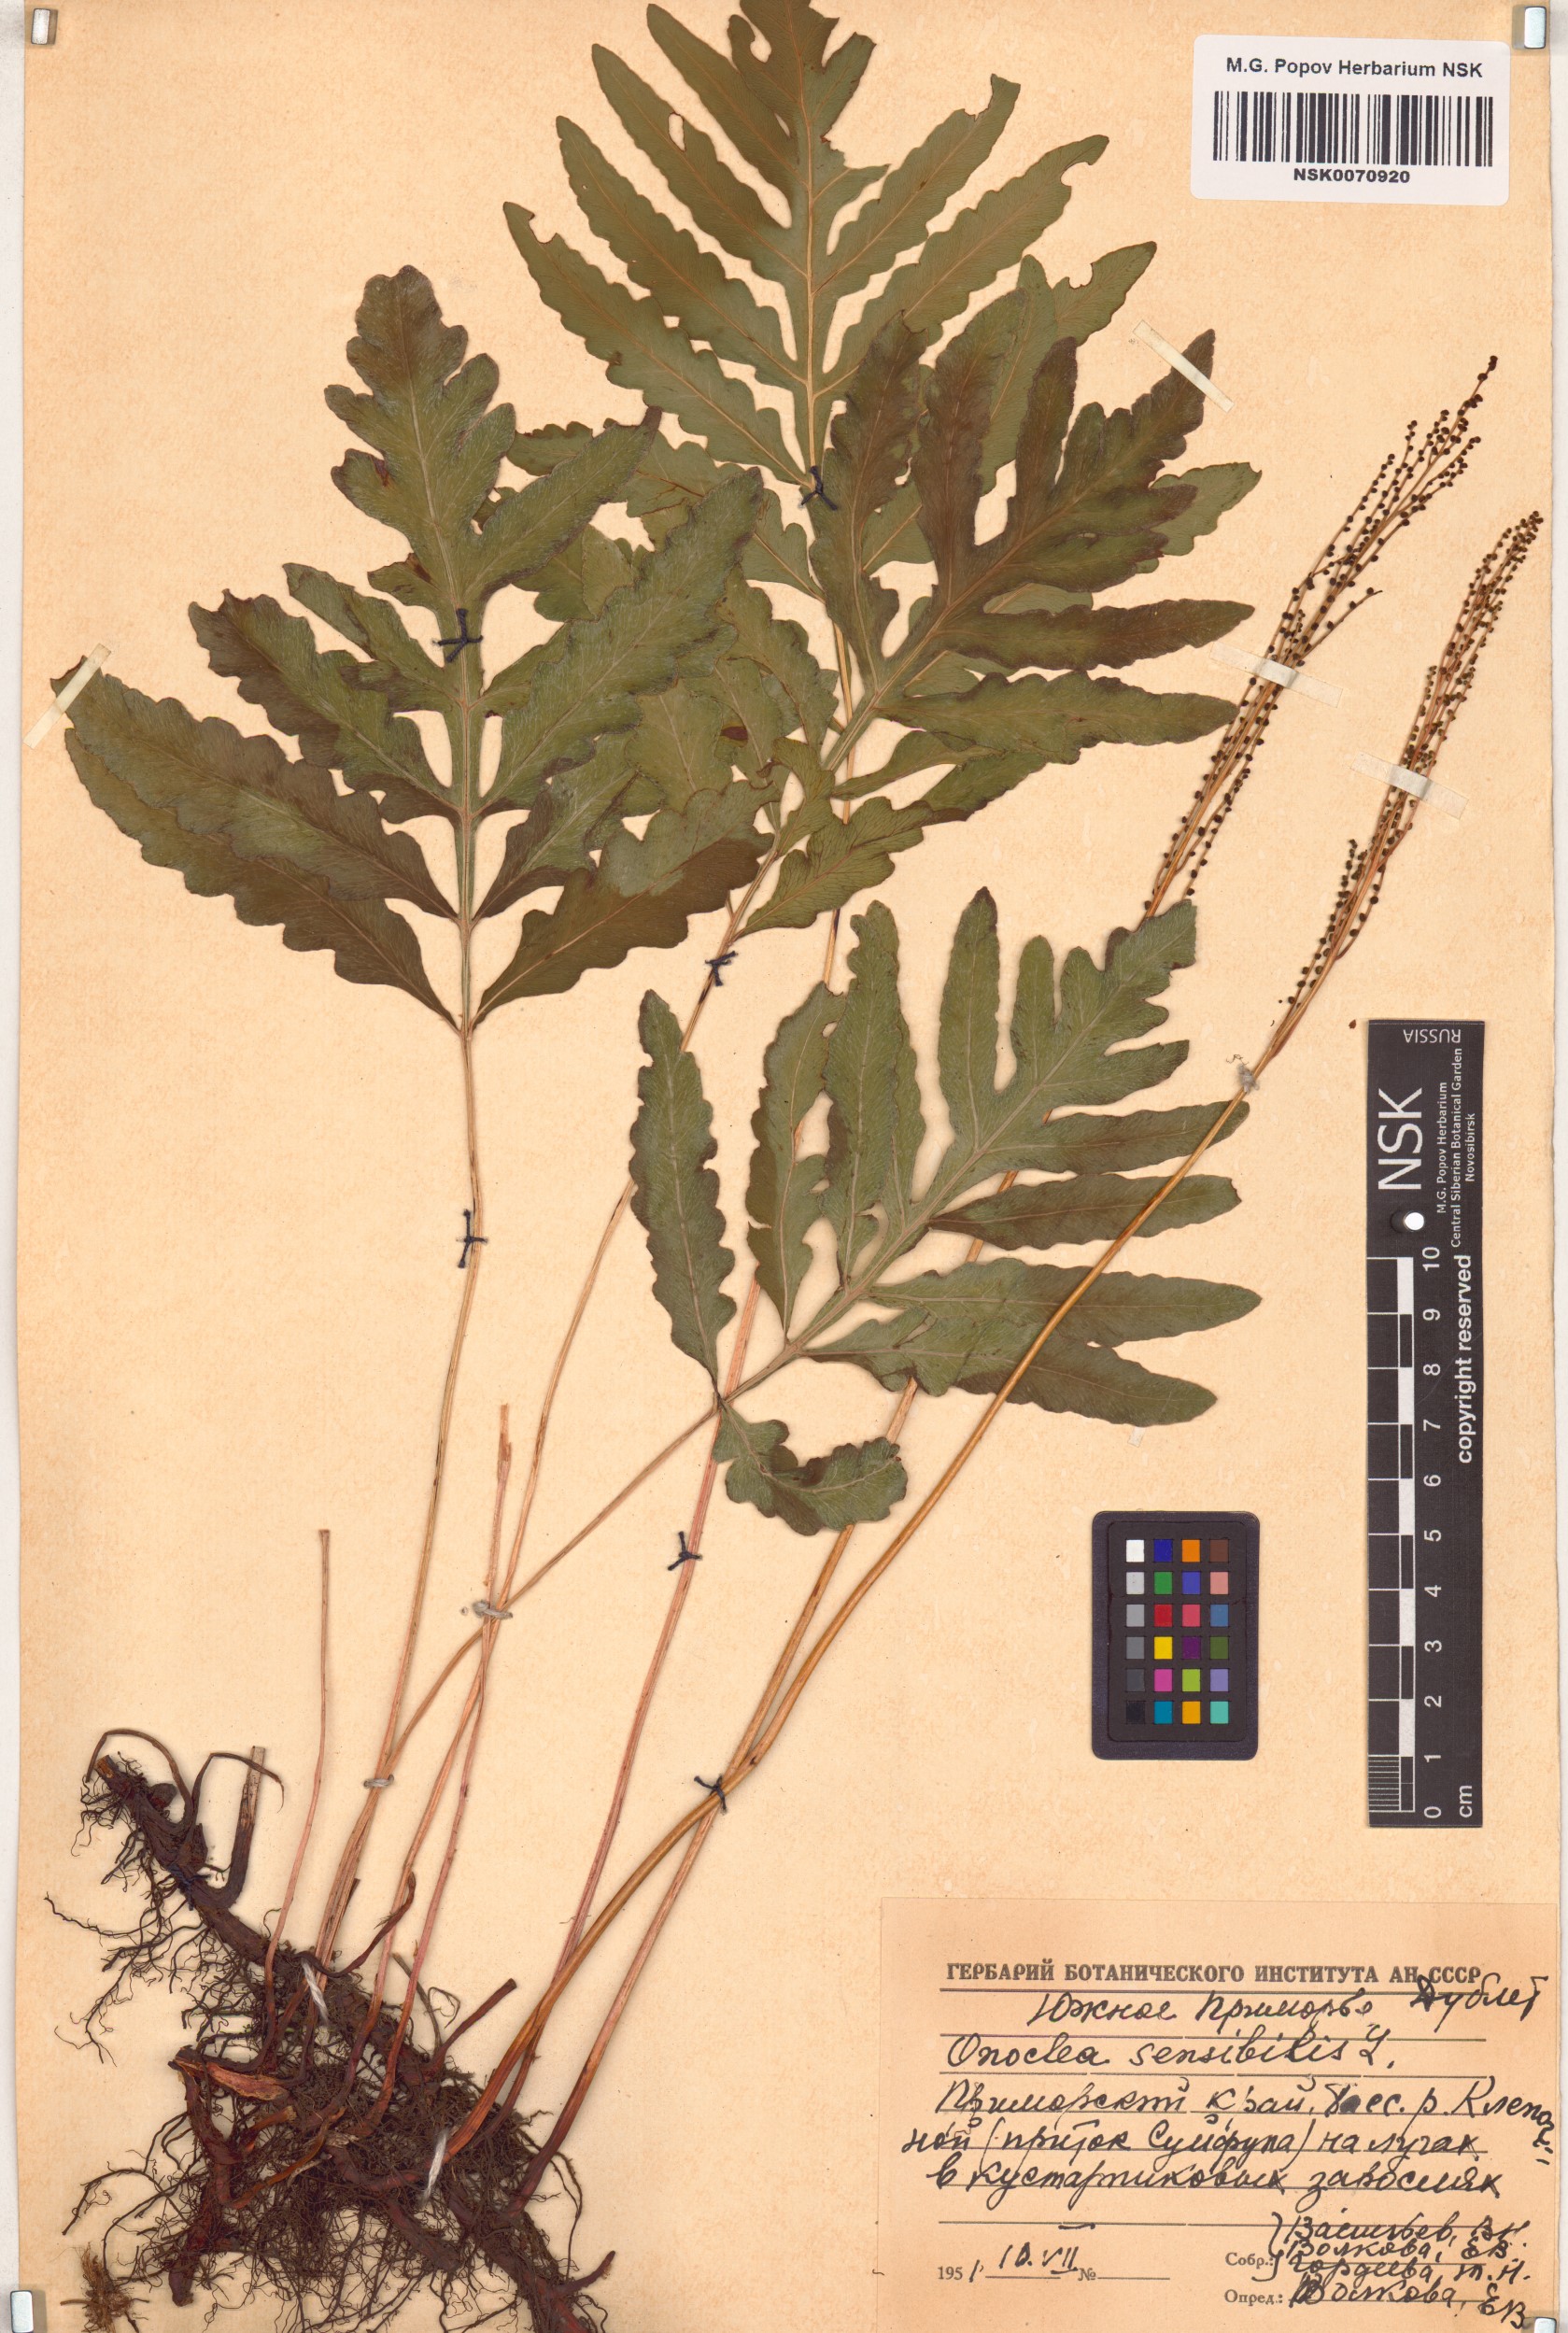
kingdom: Plantae
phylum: Tracheophyta
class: Polypodiopsida
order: Polypodiales
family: Onocleaceae
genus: Onoclea
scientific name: Onoclea sensibilis
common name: Sensitive fern
